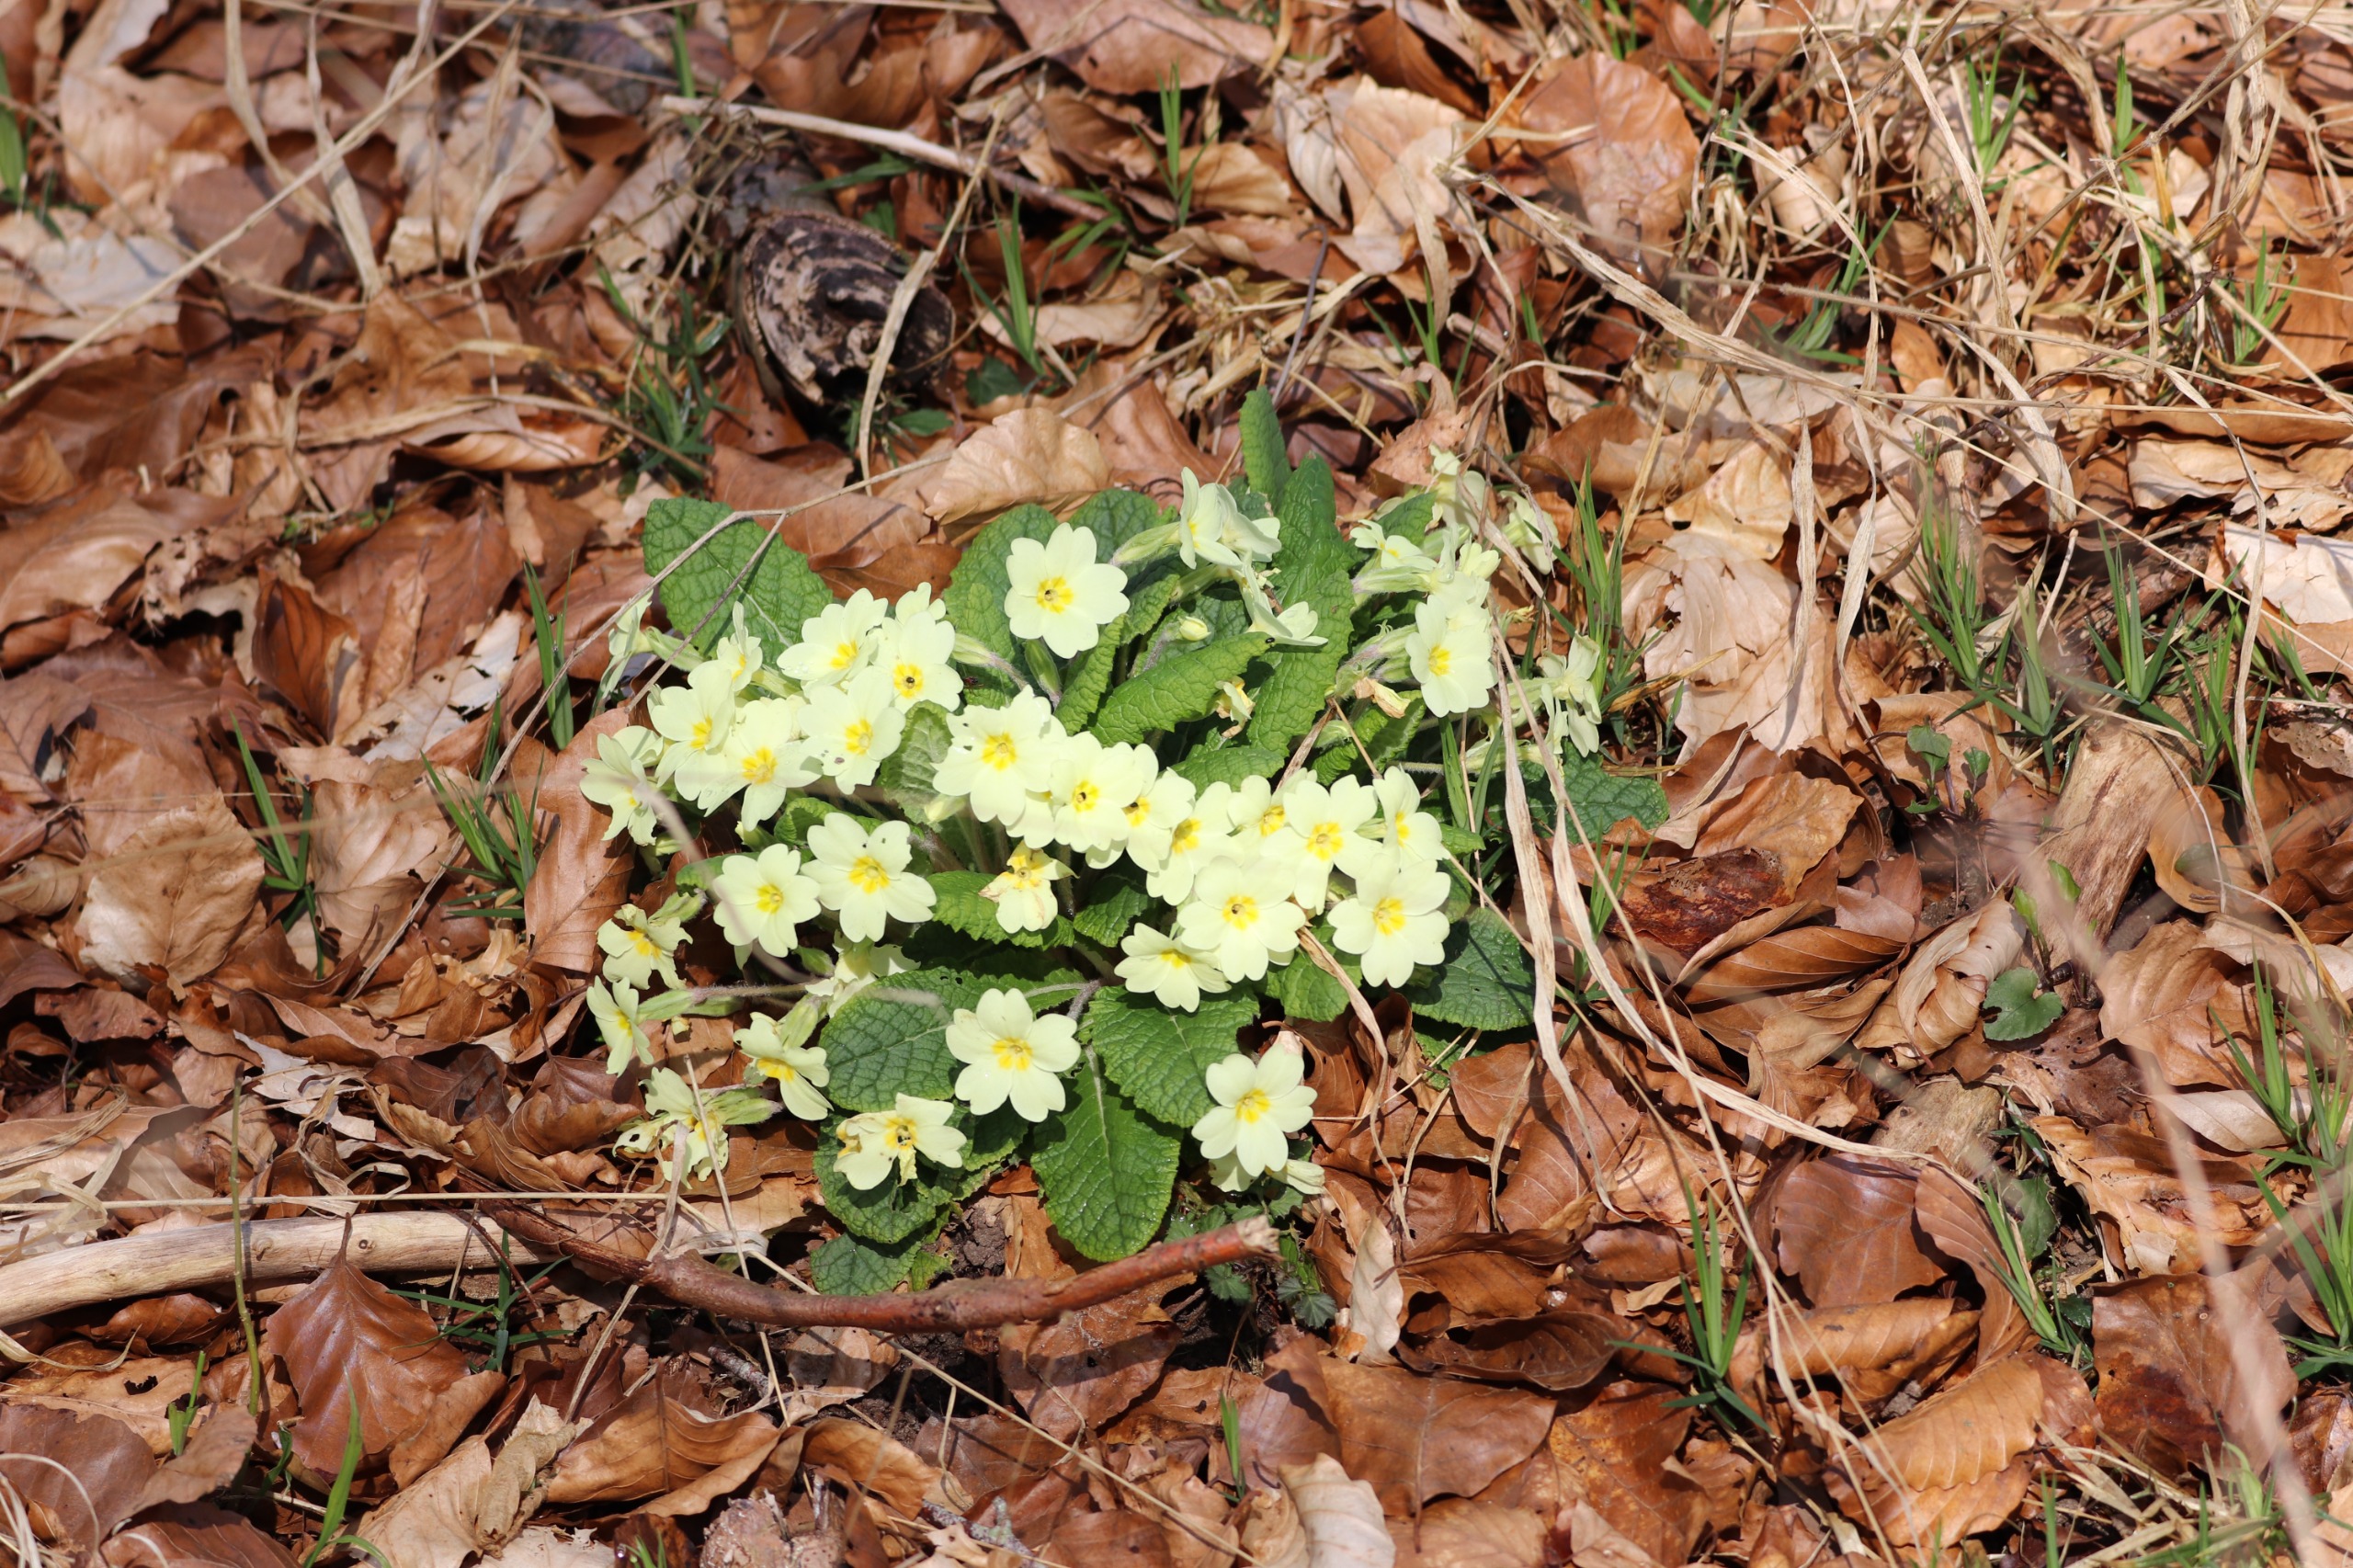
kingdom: Plantae
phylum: Tracheophyta
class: Magnoliopsida
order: Ericales
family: Primulaceae
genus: Primula
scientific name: Primula vulgaris
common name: Storblomstret kodriver
